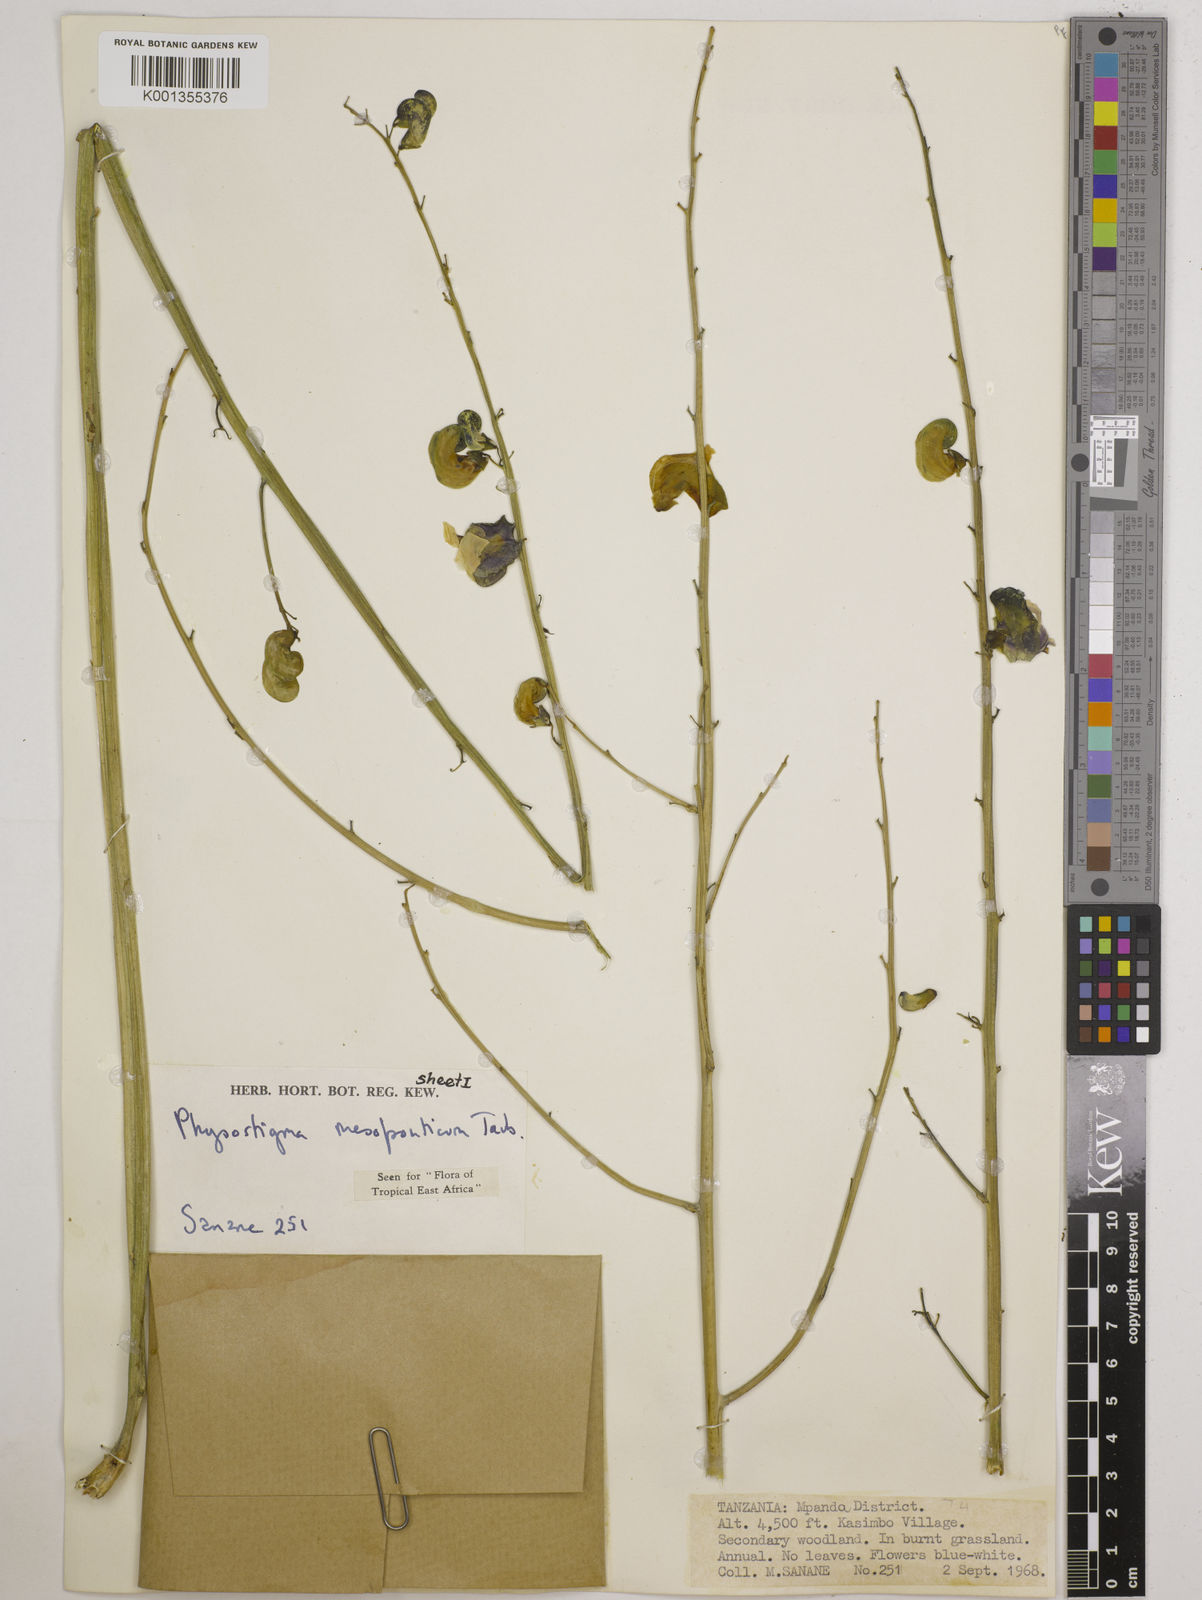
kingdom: Plantae
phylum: Tracheophyta
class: Magnoliopsida
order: Fabales
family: Fabaceae
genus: Physostigma
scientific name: Physostigma mesoponticum
